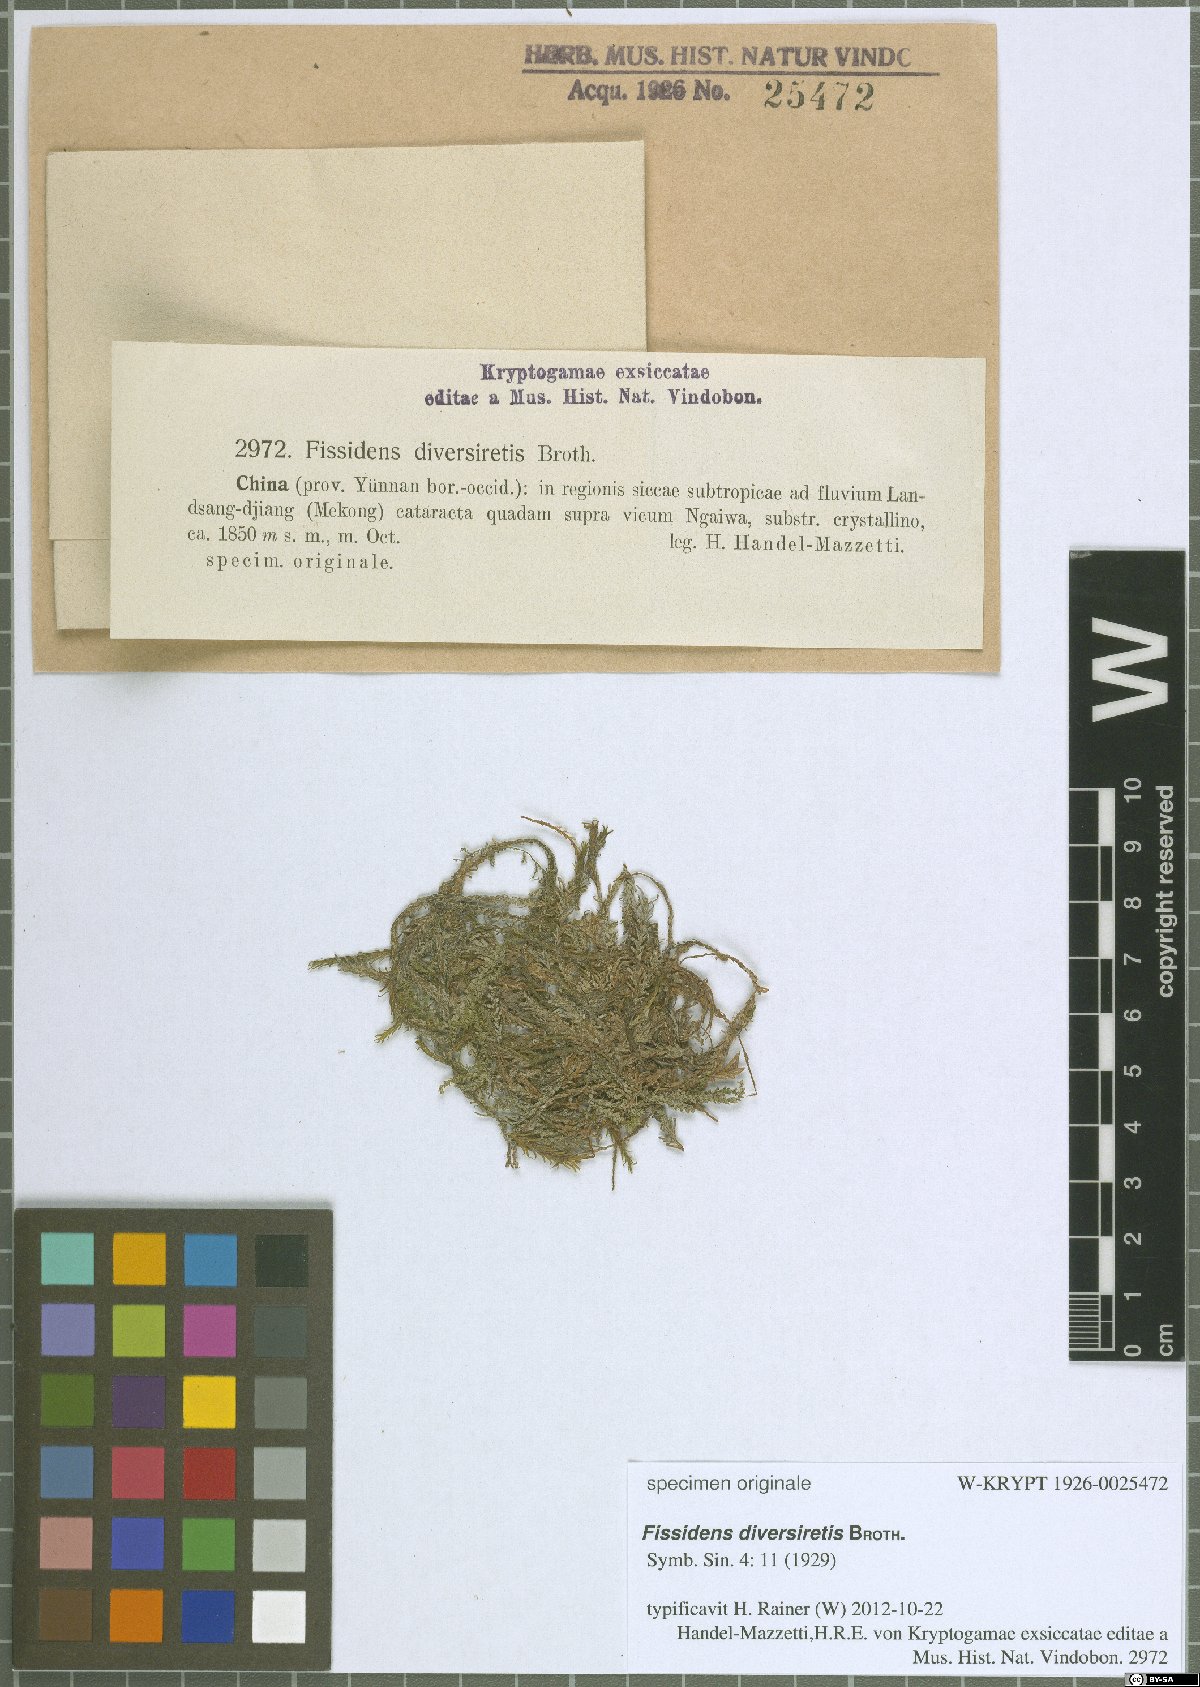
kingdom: Plantae
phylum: Bryophyta
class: Bryopsida
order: Dicranales
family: Fissidentaceae
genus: Fissidens
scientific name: Fissidens grandifrons
